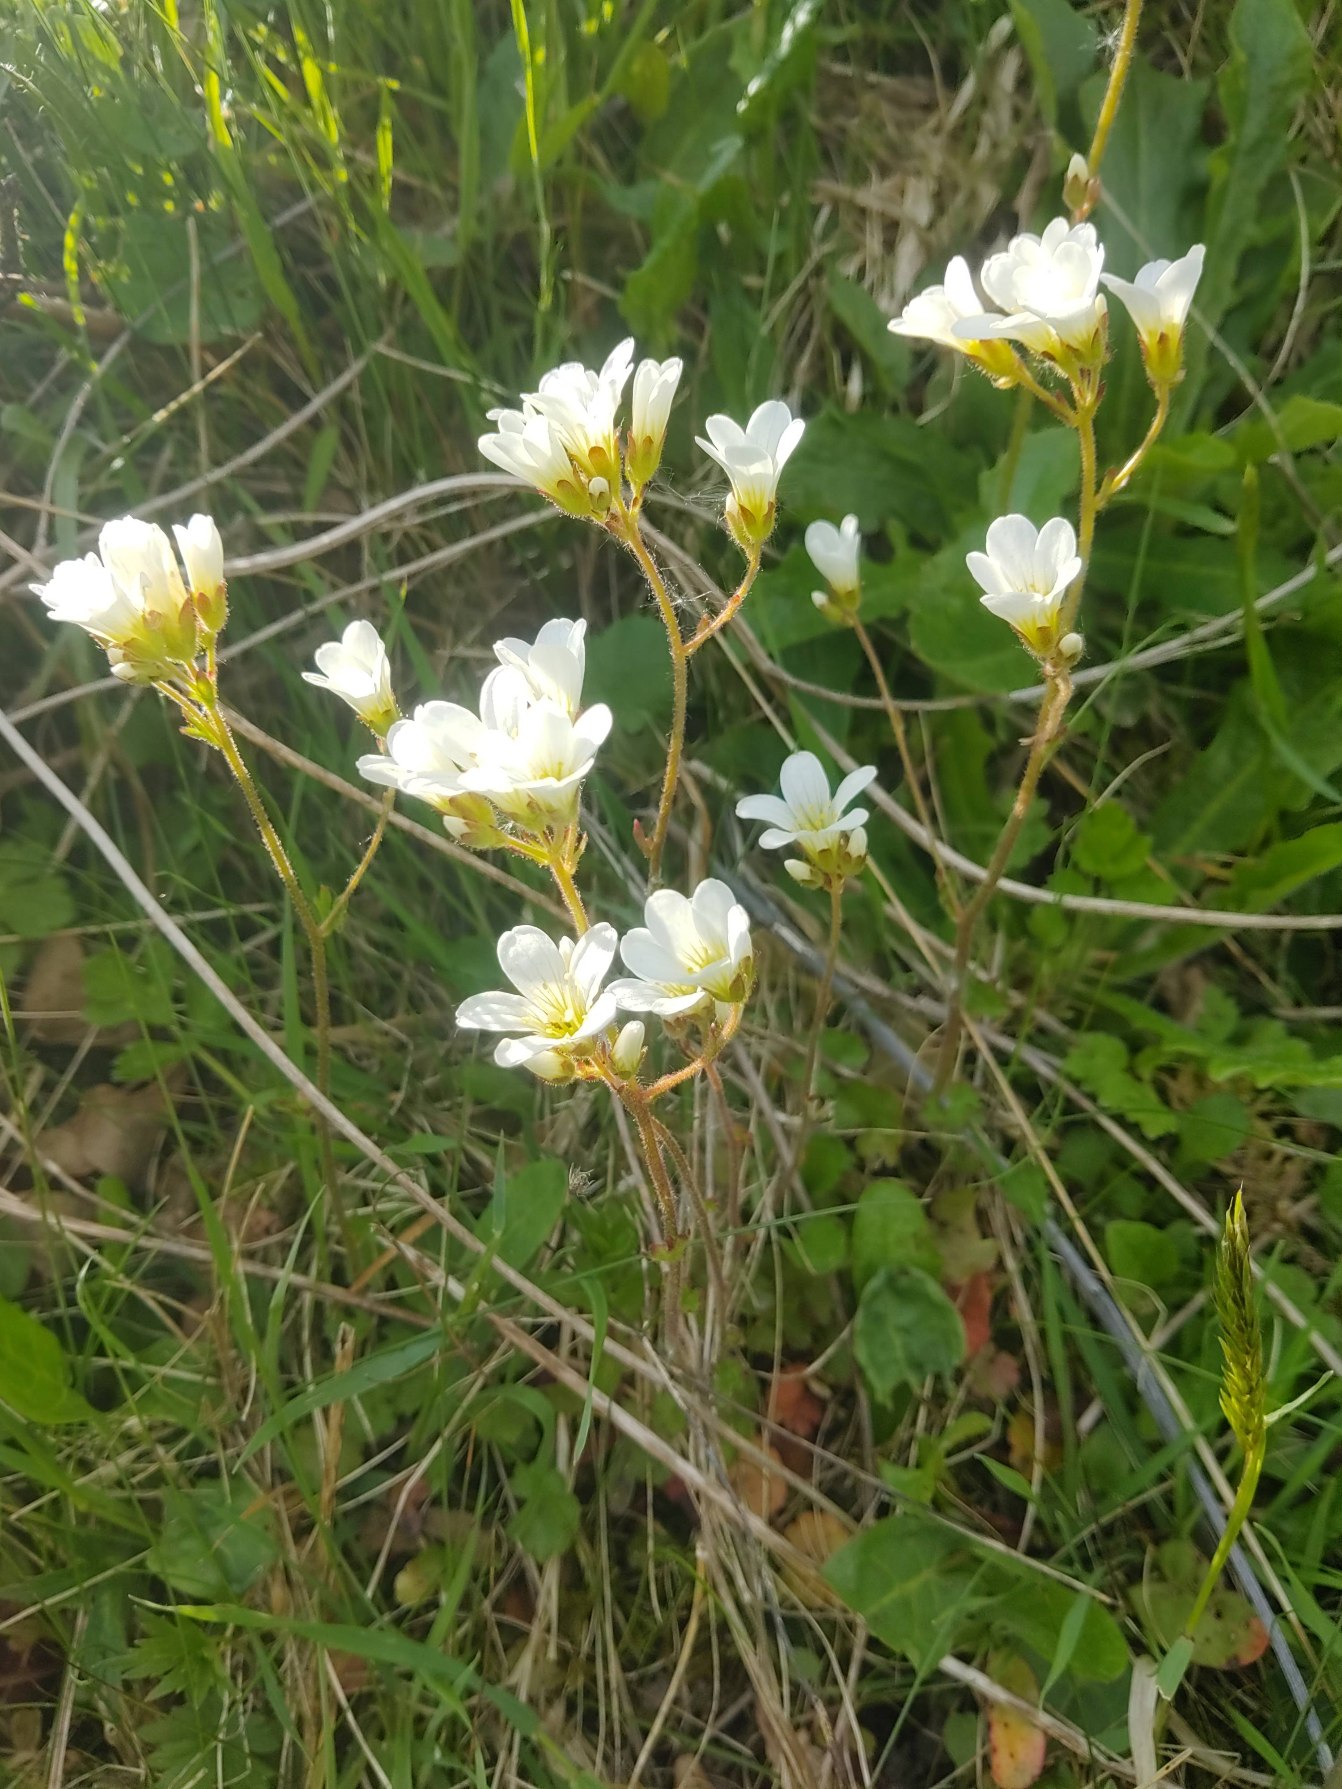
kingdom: Plantae
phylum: Tracheophyta
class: Magnoliopsida
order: Saxifragales
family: Saxifragaceae
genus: Saxifraga
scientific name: Saxifraga granulata
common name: Kornet stenbræk
